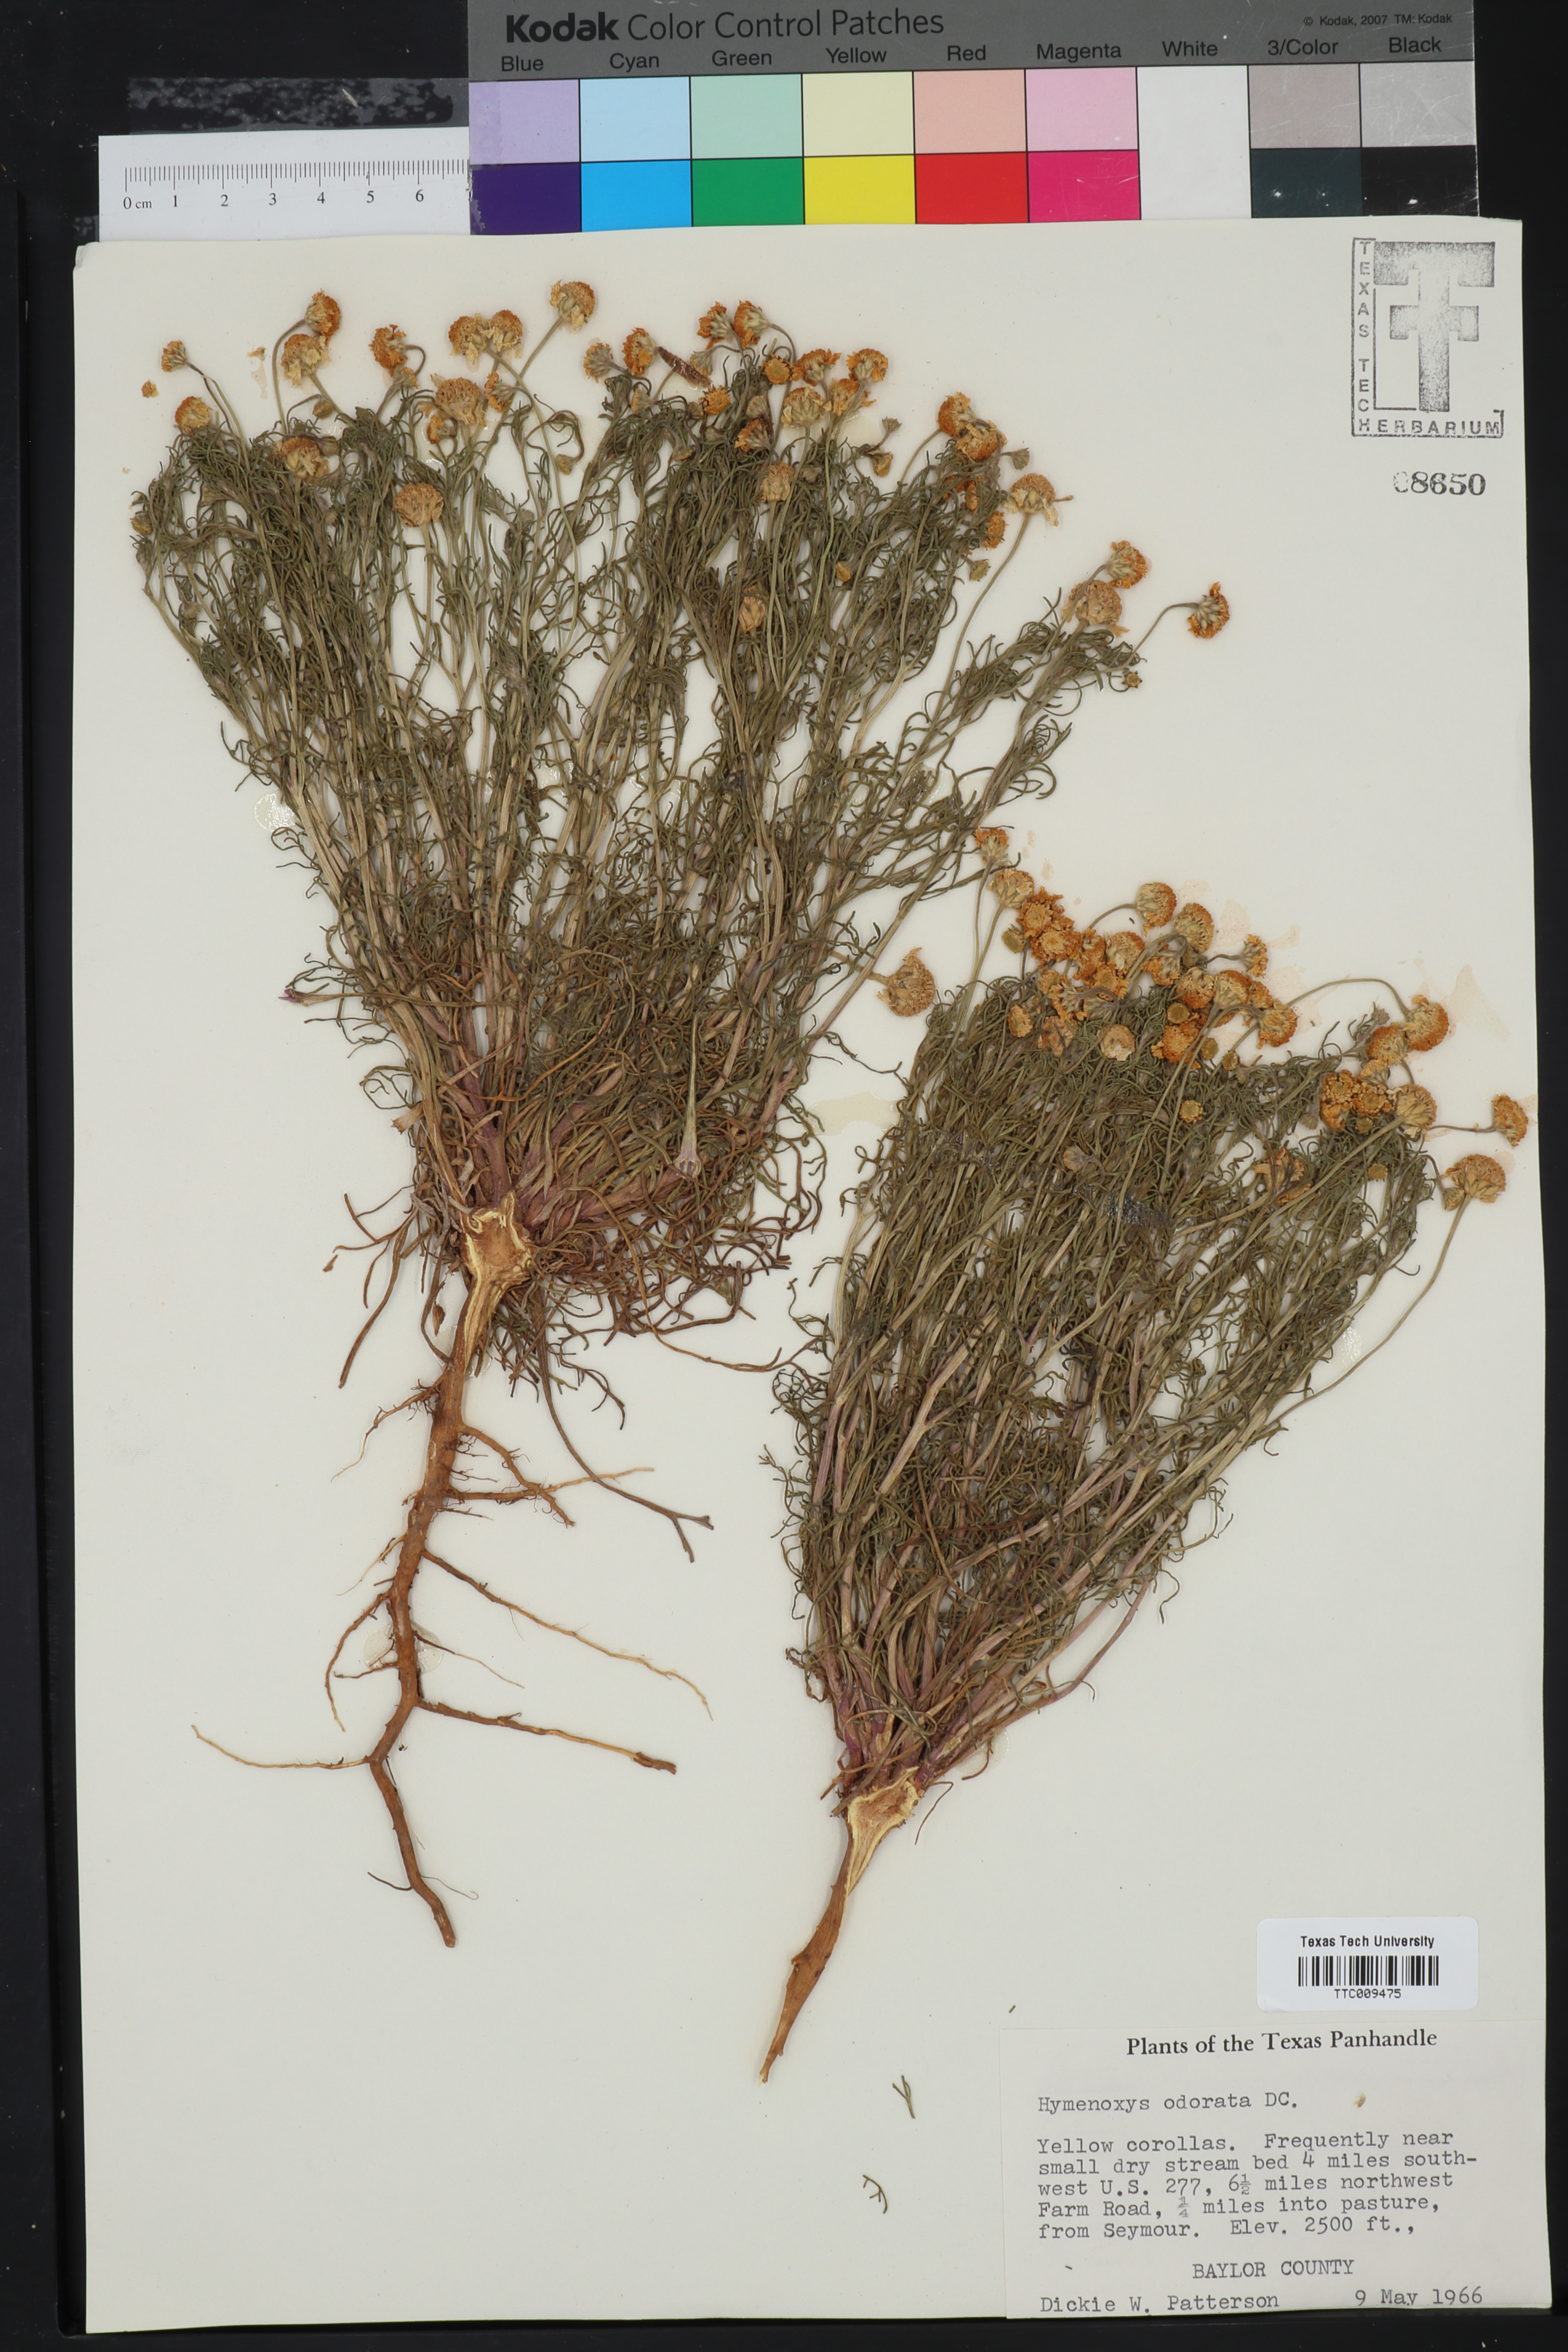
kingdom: Plantae
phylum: Tracheophyta
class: Magnoliopsida
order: Asterales
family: Asteraceae
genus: Hymenoxys
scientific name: Hymenoxys odorata
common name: Bitter rubberweed
